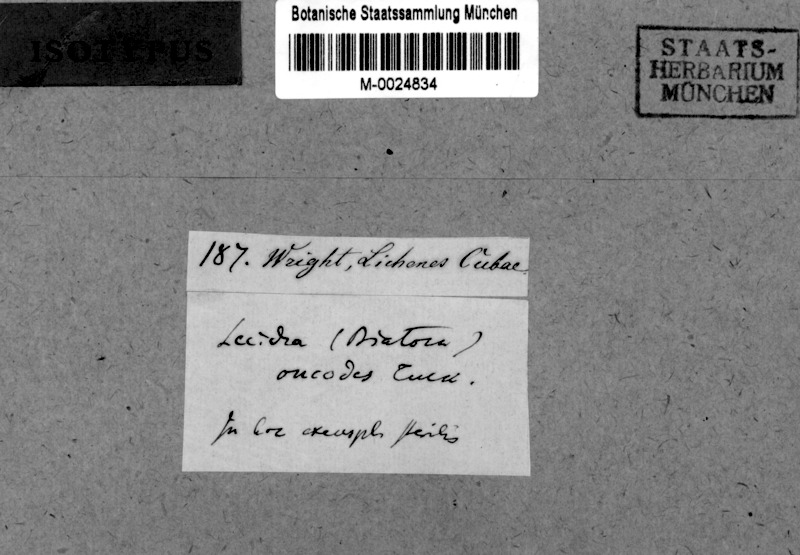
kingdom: Fungi
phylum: Ascomycota
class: Lecanoromycetes
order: Lecideales
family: Lecideaceae
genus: Lecidea
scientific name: Lecidea oncodes
